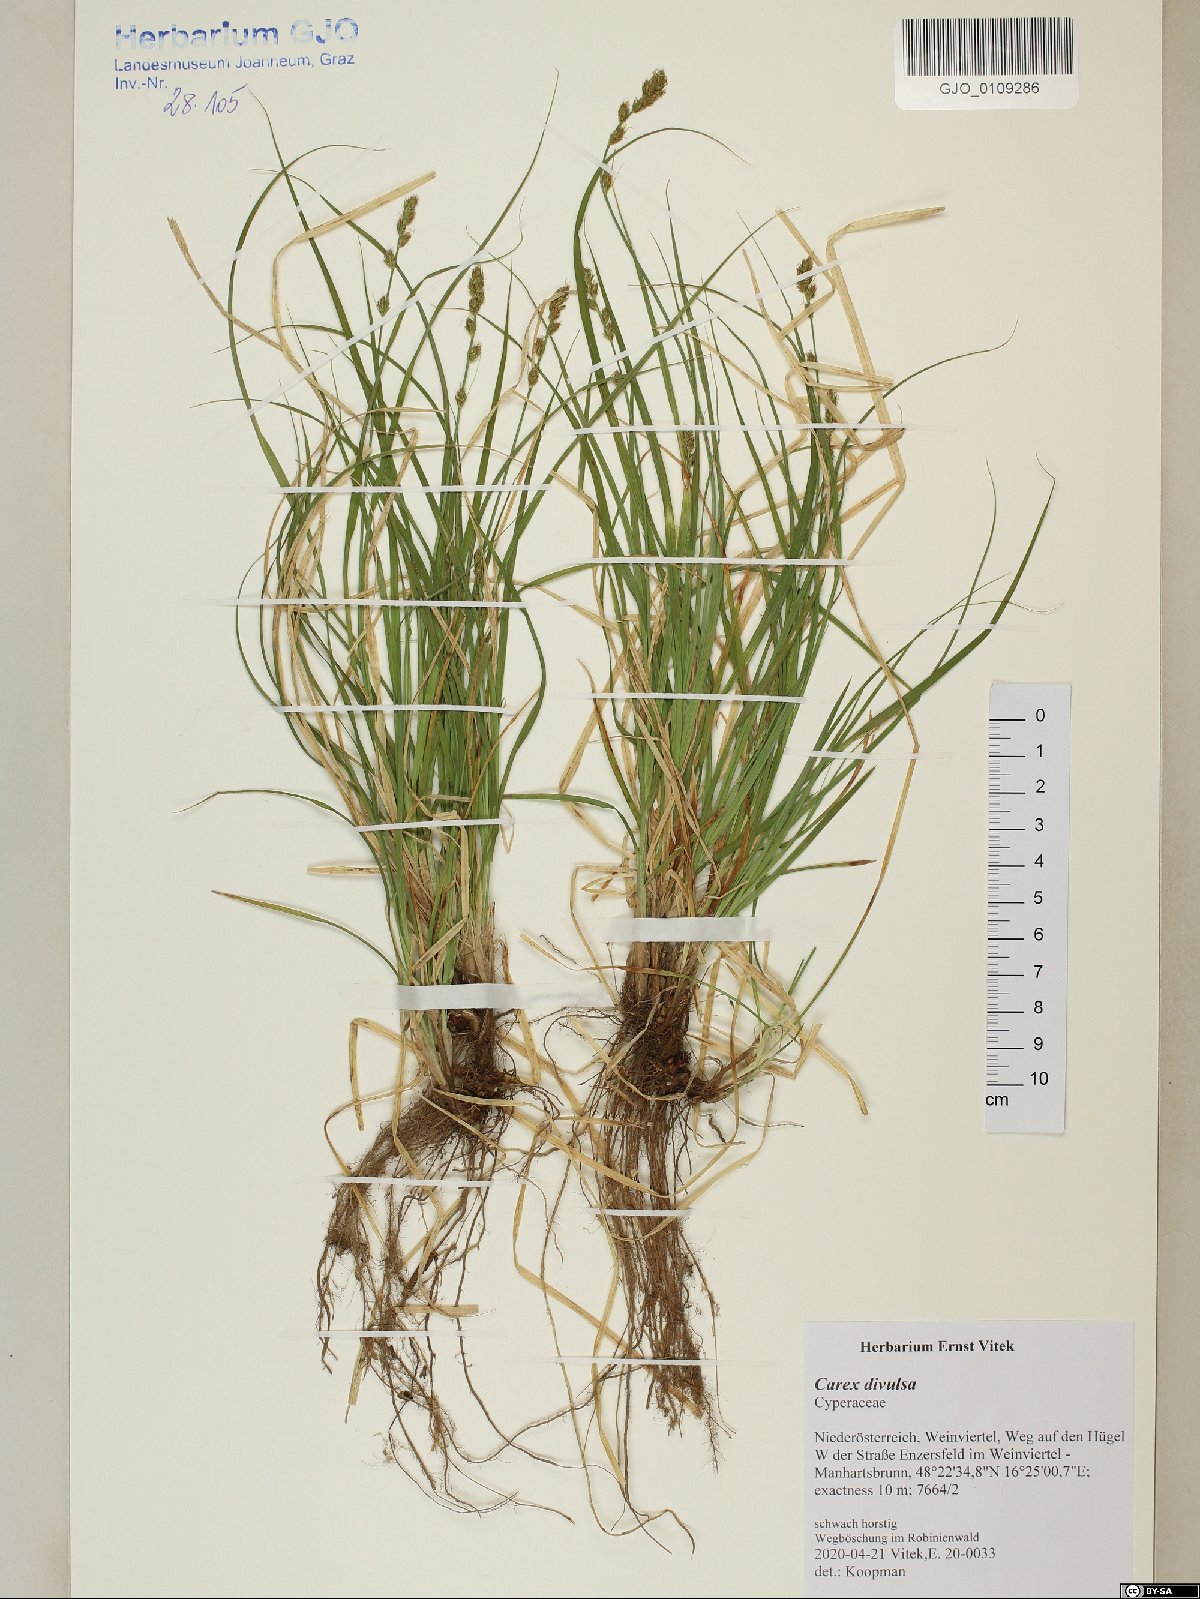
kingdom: Plantae
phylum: Tracheophyta
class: Liliopsida
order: Poales
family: Cyperaceae
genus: Carex
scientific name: Carex divulsa
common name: Grassland sedge
